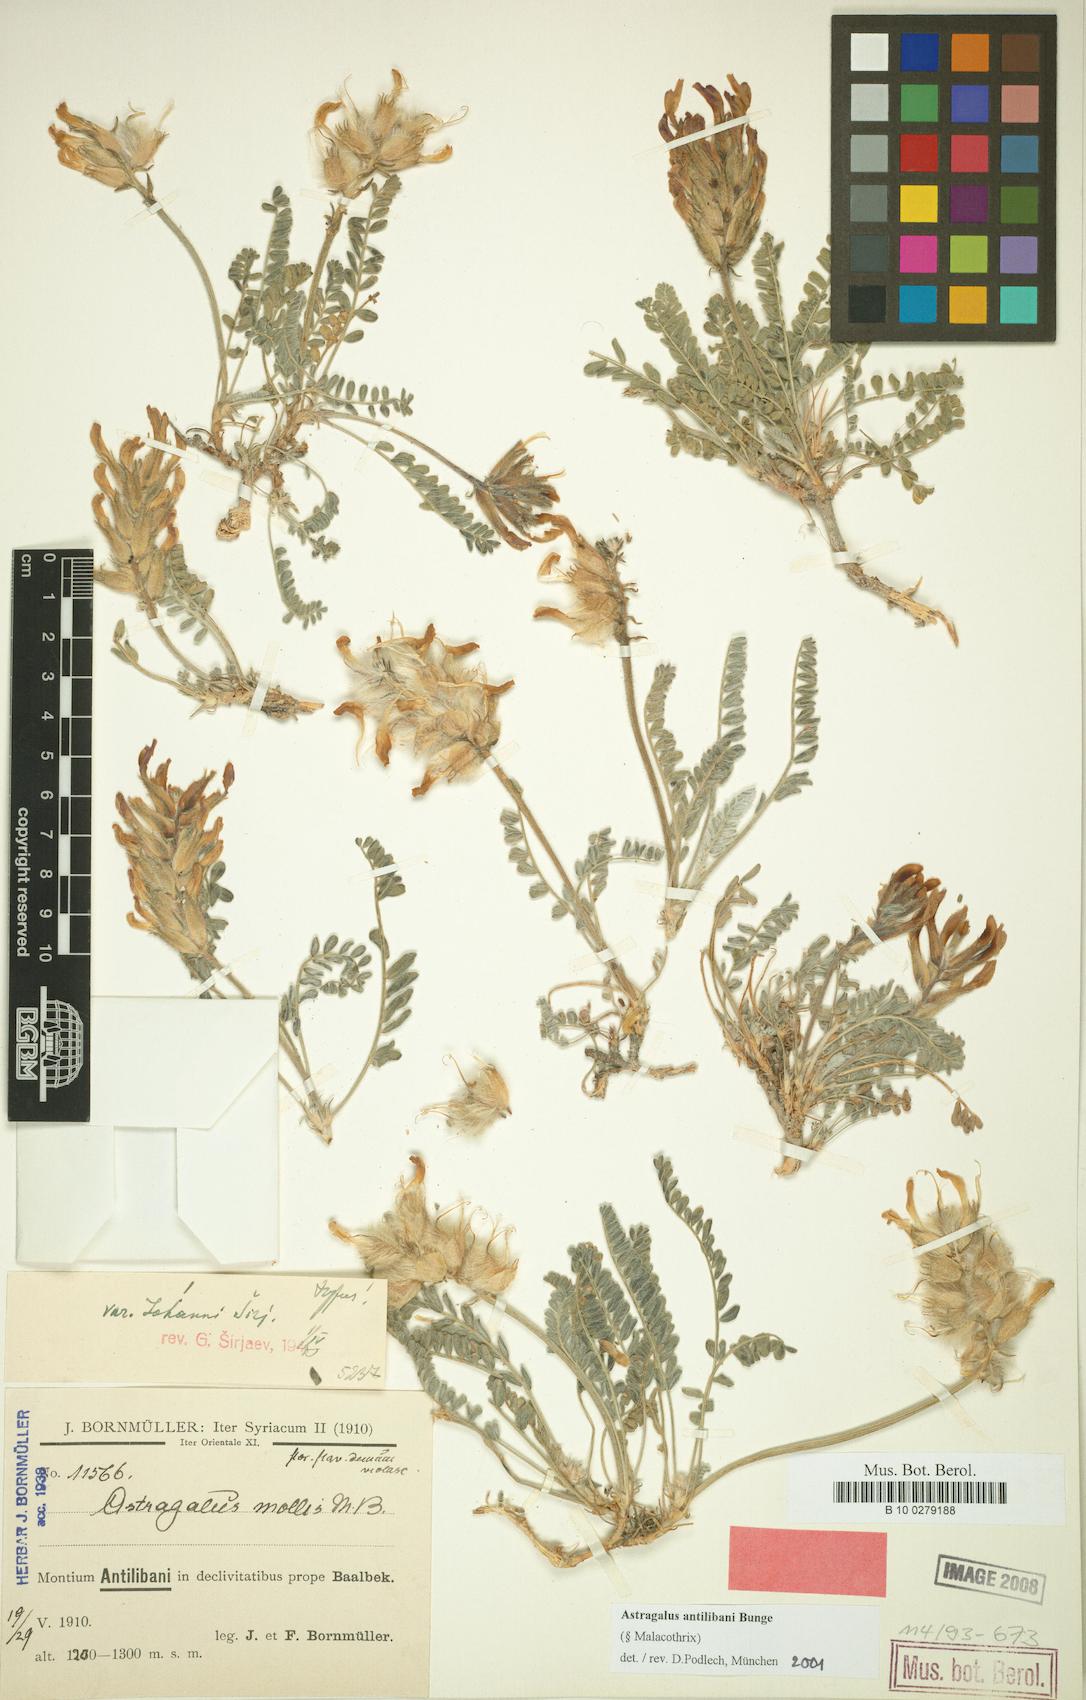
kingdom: Plantae
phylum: Tracheophyta
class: Magnoliopsida
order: Fabales
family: Fabaceae
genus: Astragalus
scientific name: Astragalus antilibani
